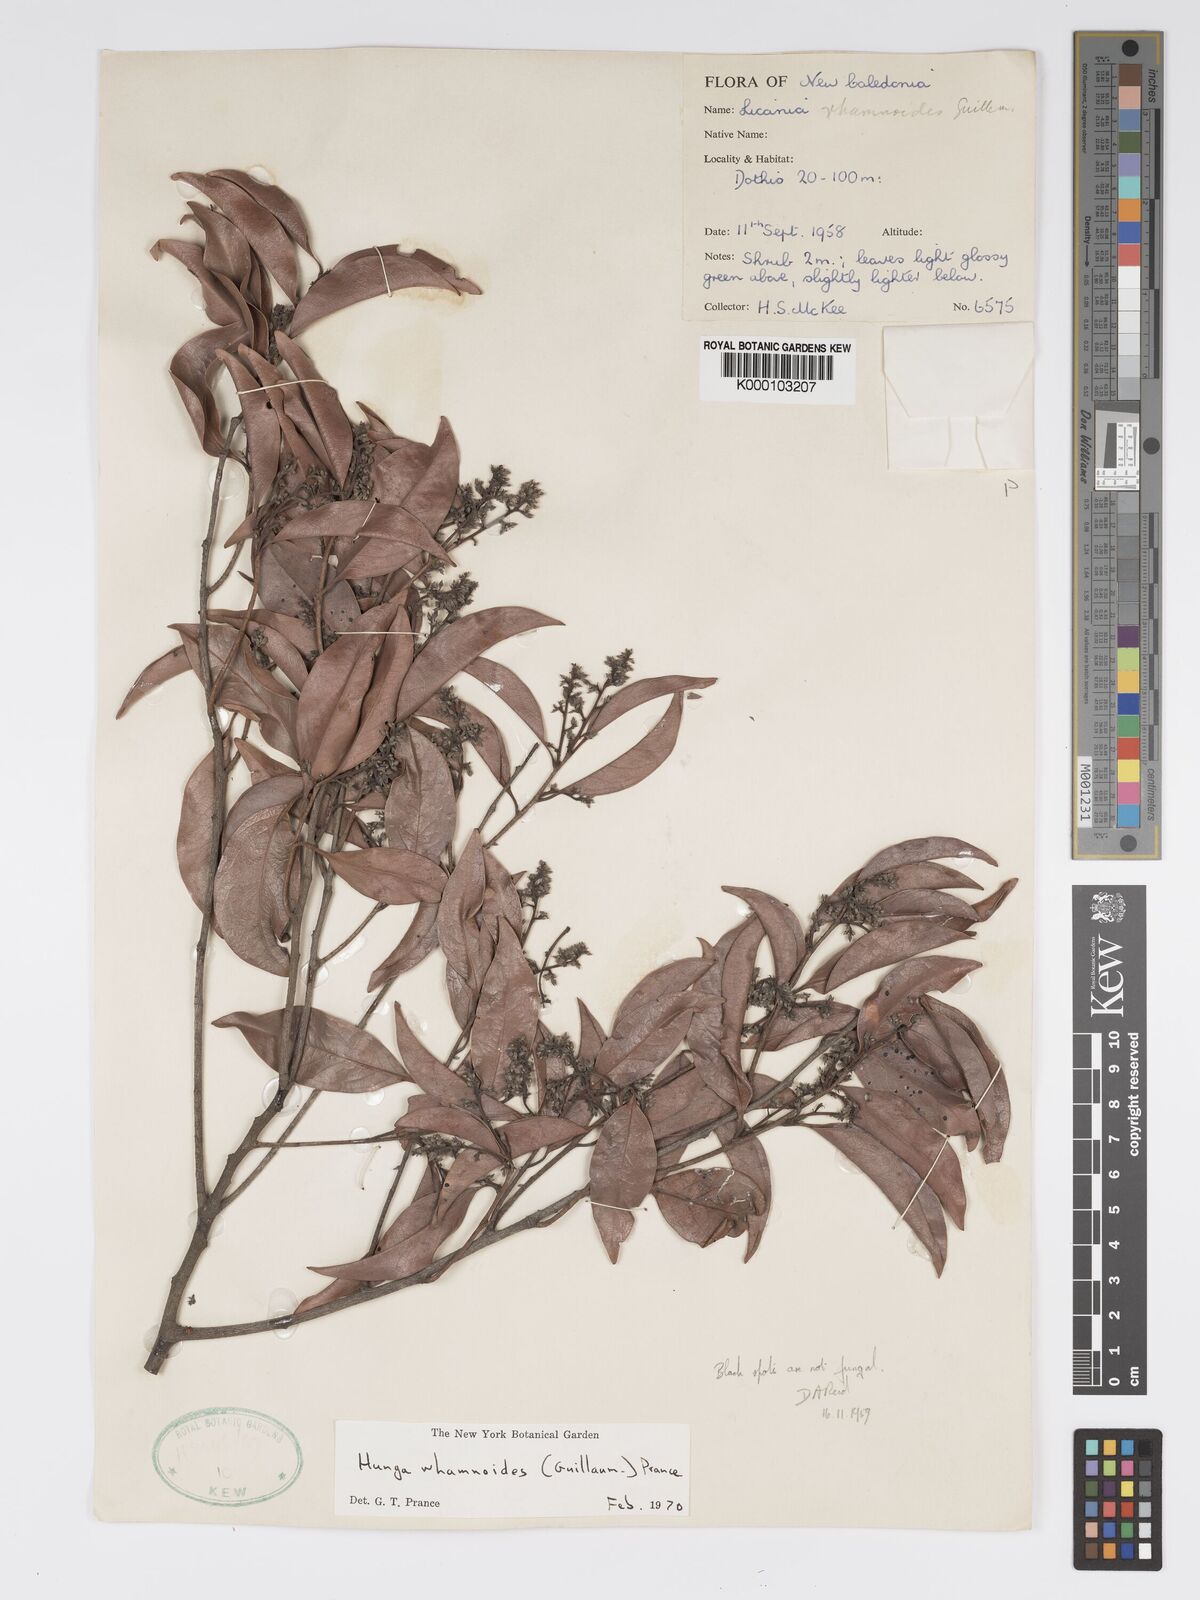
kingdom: Plantae
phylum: Tracheophyta
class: Magnoliopsida
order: Malpighiales
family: Chrysobalanaceae
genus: Hunga
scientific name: Hunga rhamnoides
